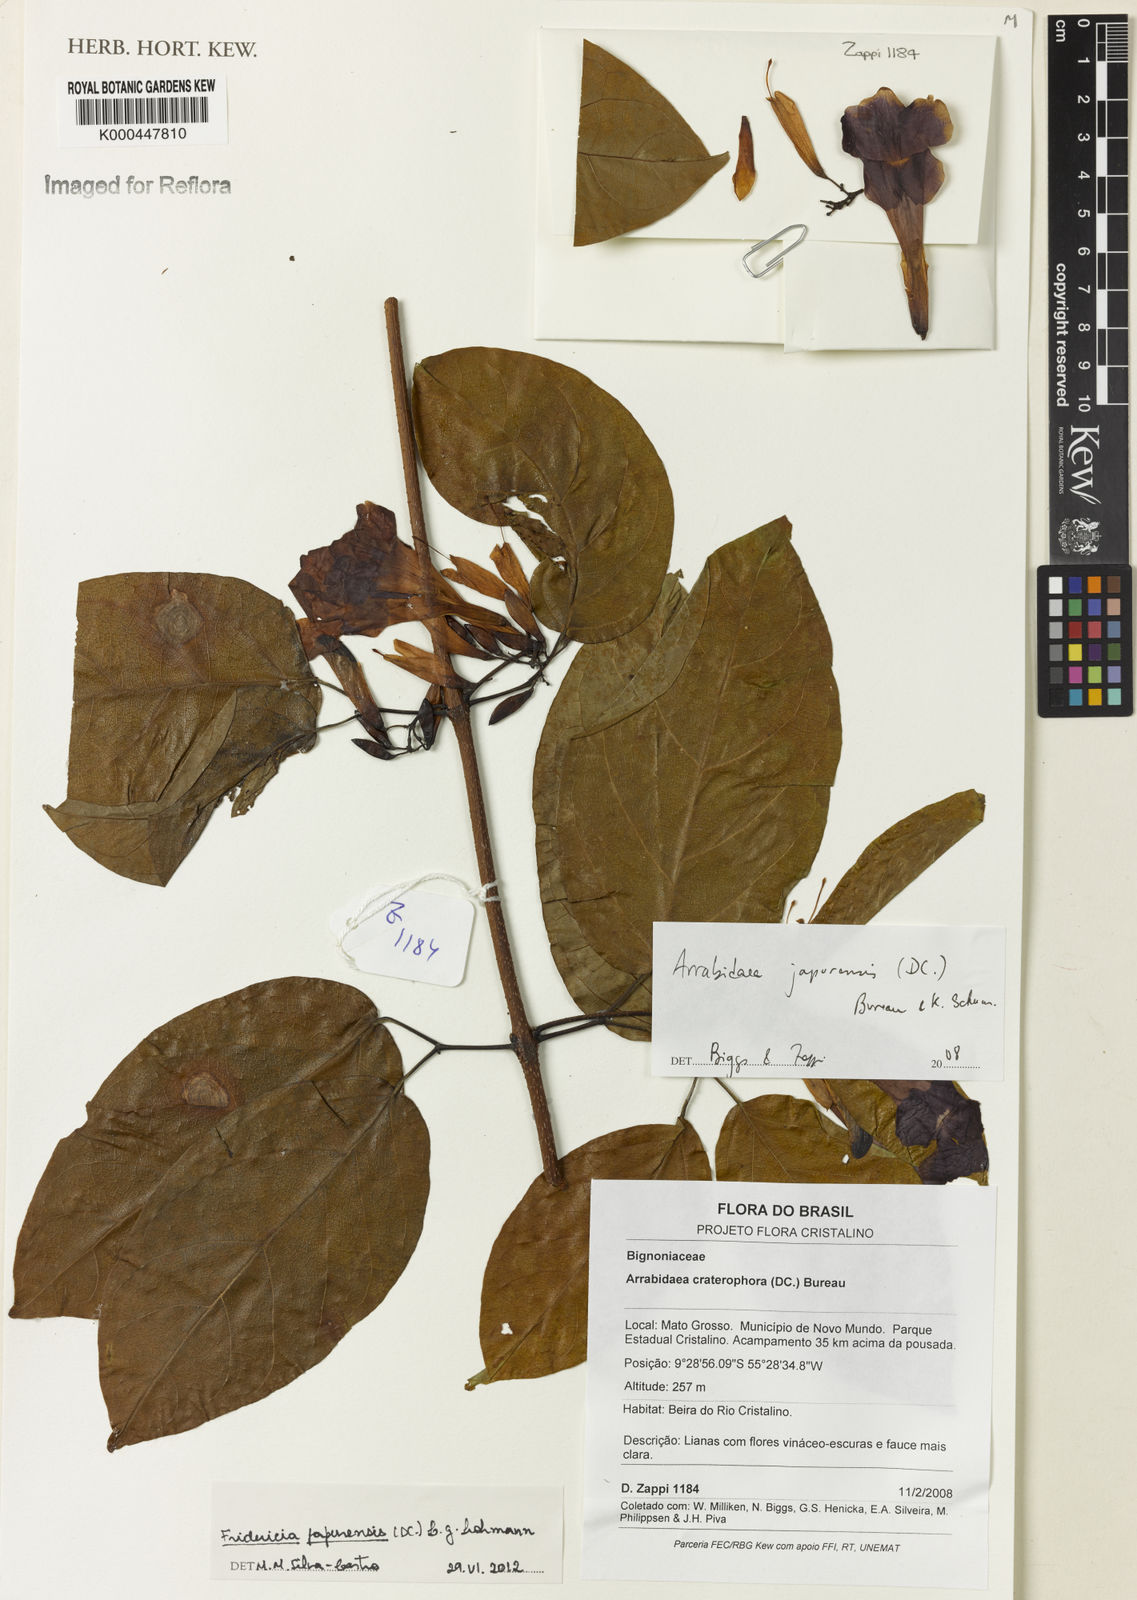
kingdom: Plantae
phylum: Tracheophyta
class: Magnoliopsida
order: Lamiales
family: Bignoniaceae
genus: Fridericia
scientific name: Fridericia japurensis
